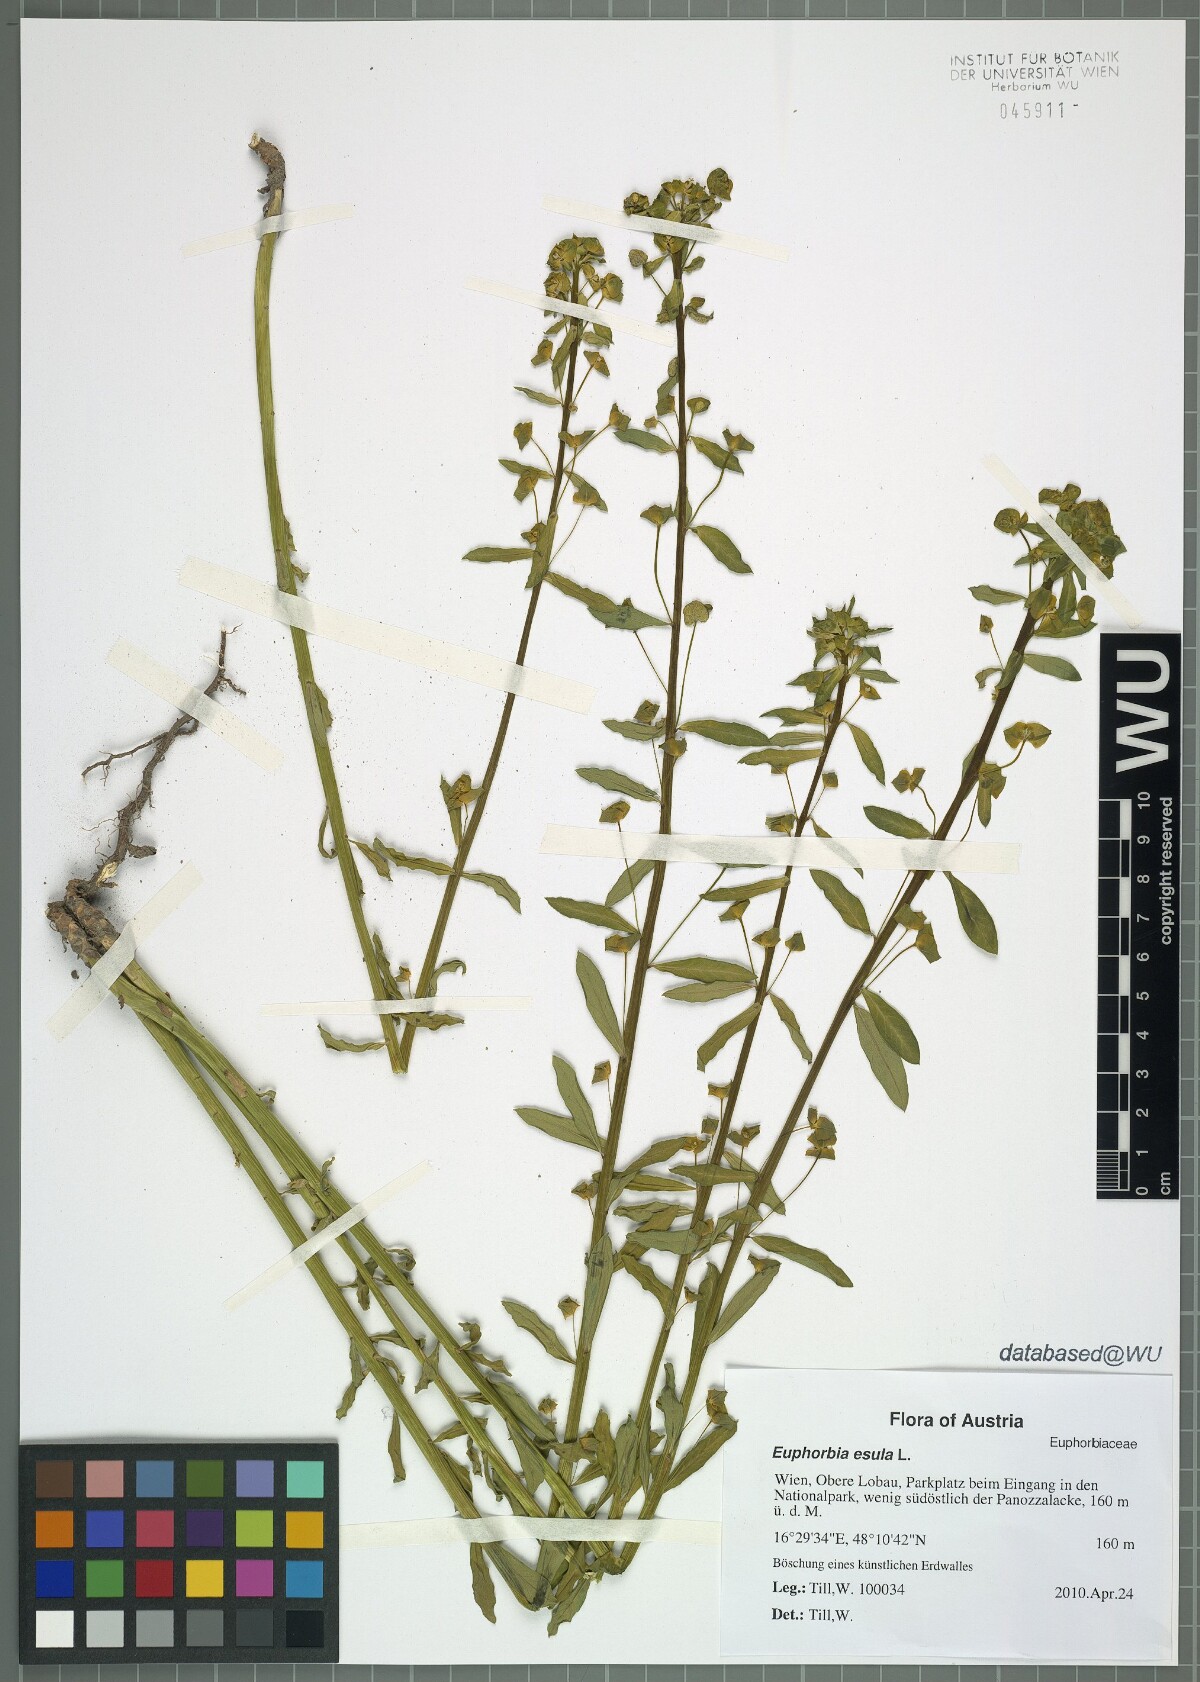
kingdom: Plantae
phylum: Tracheophyta
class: Magnoliopsida
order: Malpighiales
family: Euphorbiaceae
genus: Euphorbia
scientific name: Euphorbia esula
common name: Leafy spurge
